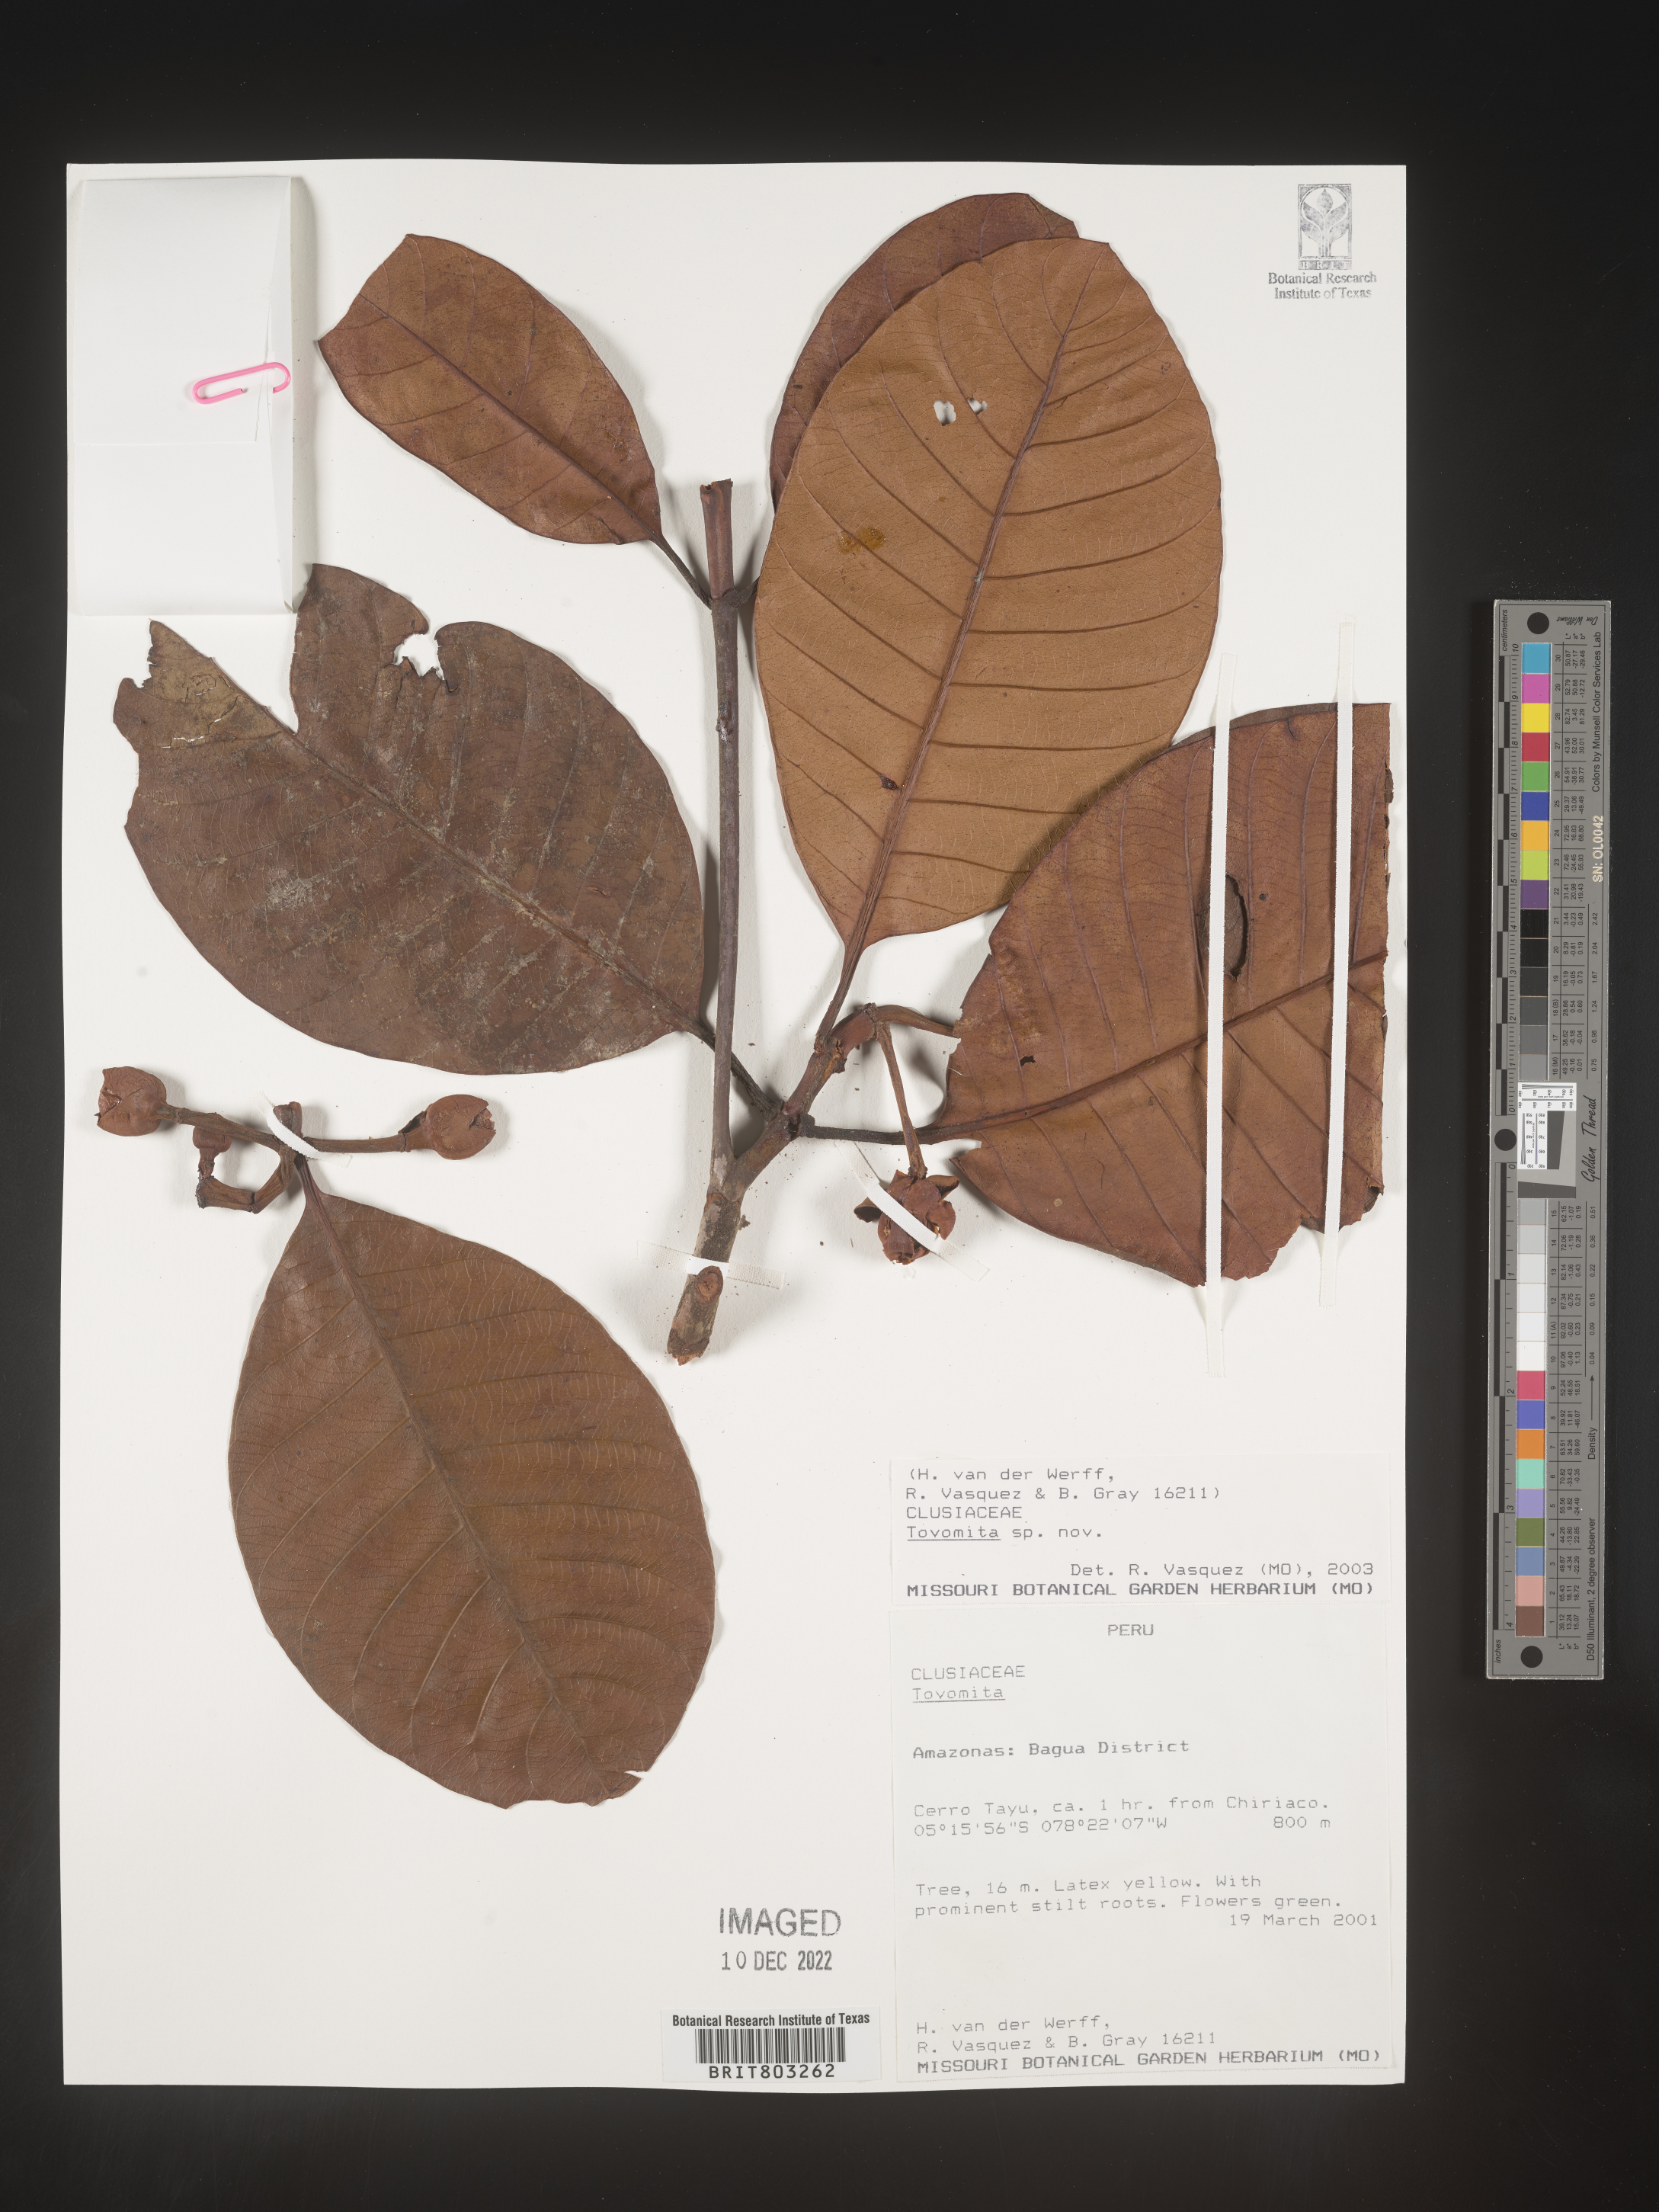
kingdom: Plantae
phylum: Tracheophyta
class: Magnoliopsida
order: Malpighiales
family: Clusiaceae
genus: Tovomita
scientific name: Tovomita
